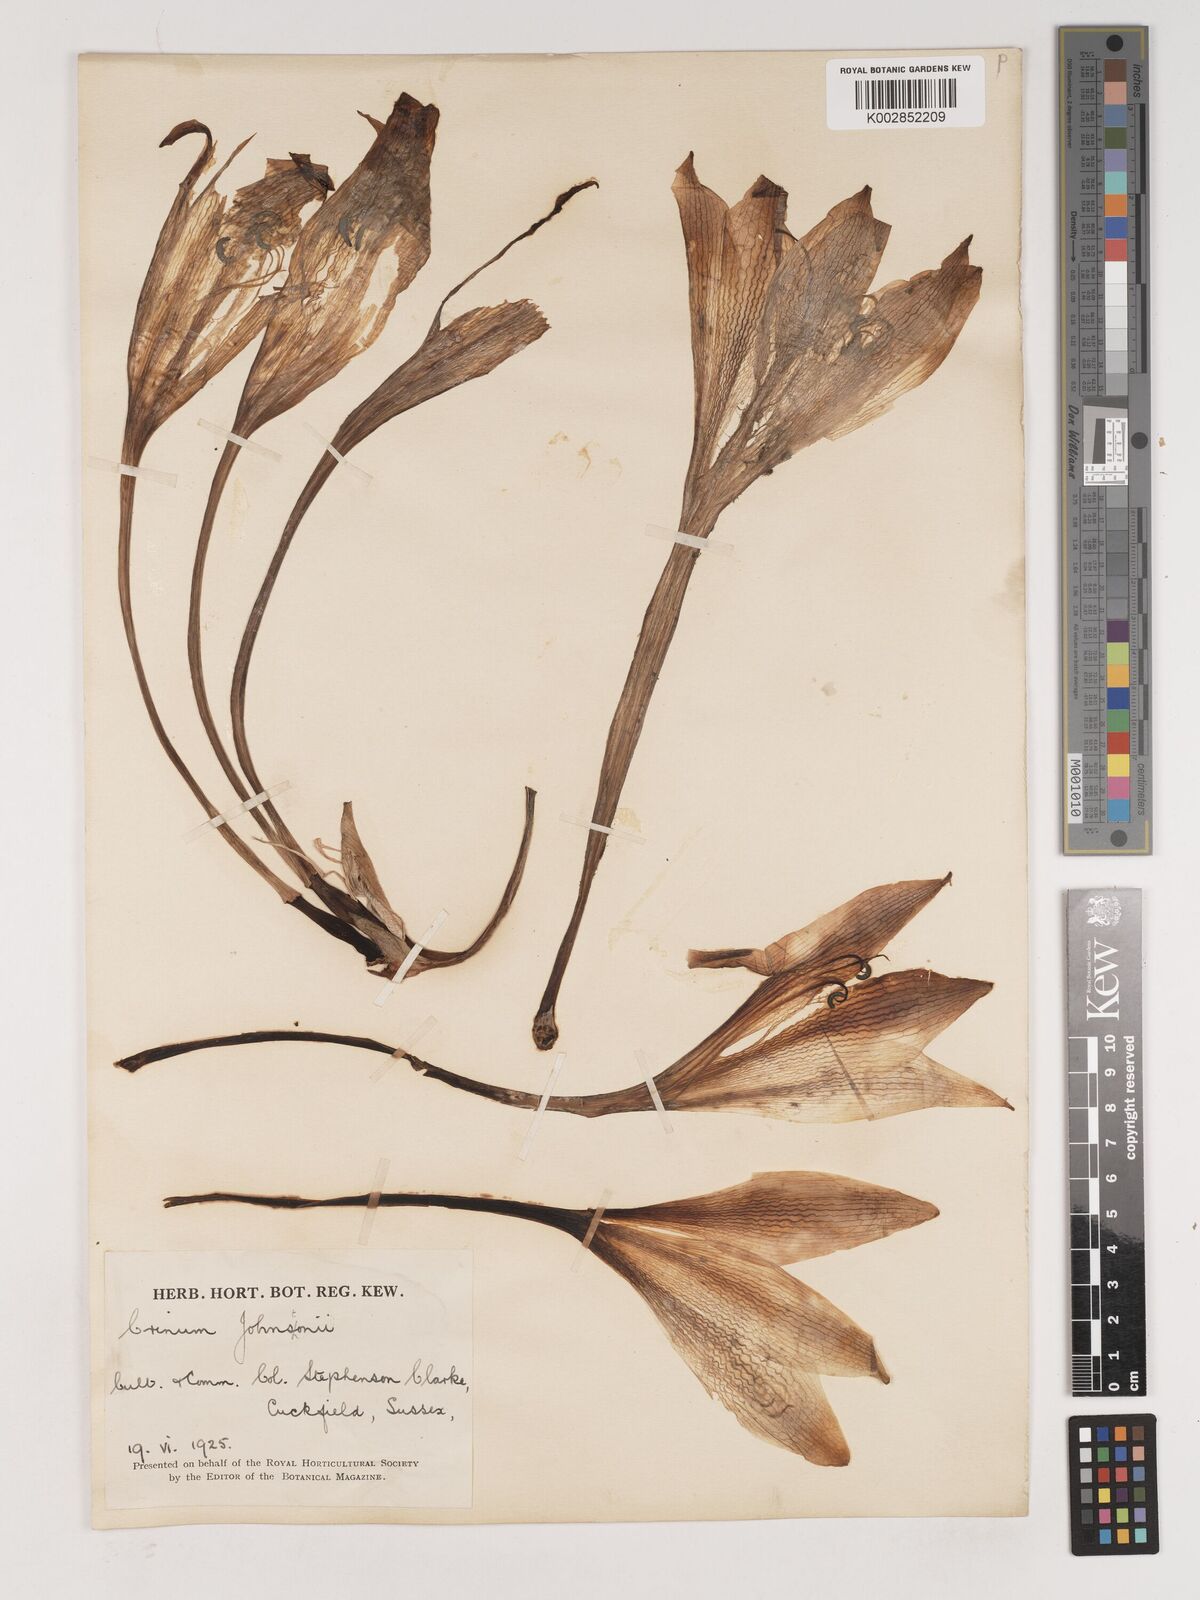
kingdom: Plantae
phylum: Tracheophyta
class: Liliopsida
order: Asparagales
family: Amaryllidaceae
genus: Crinum
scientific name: Crinum kirkii
